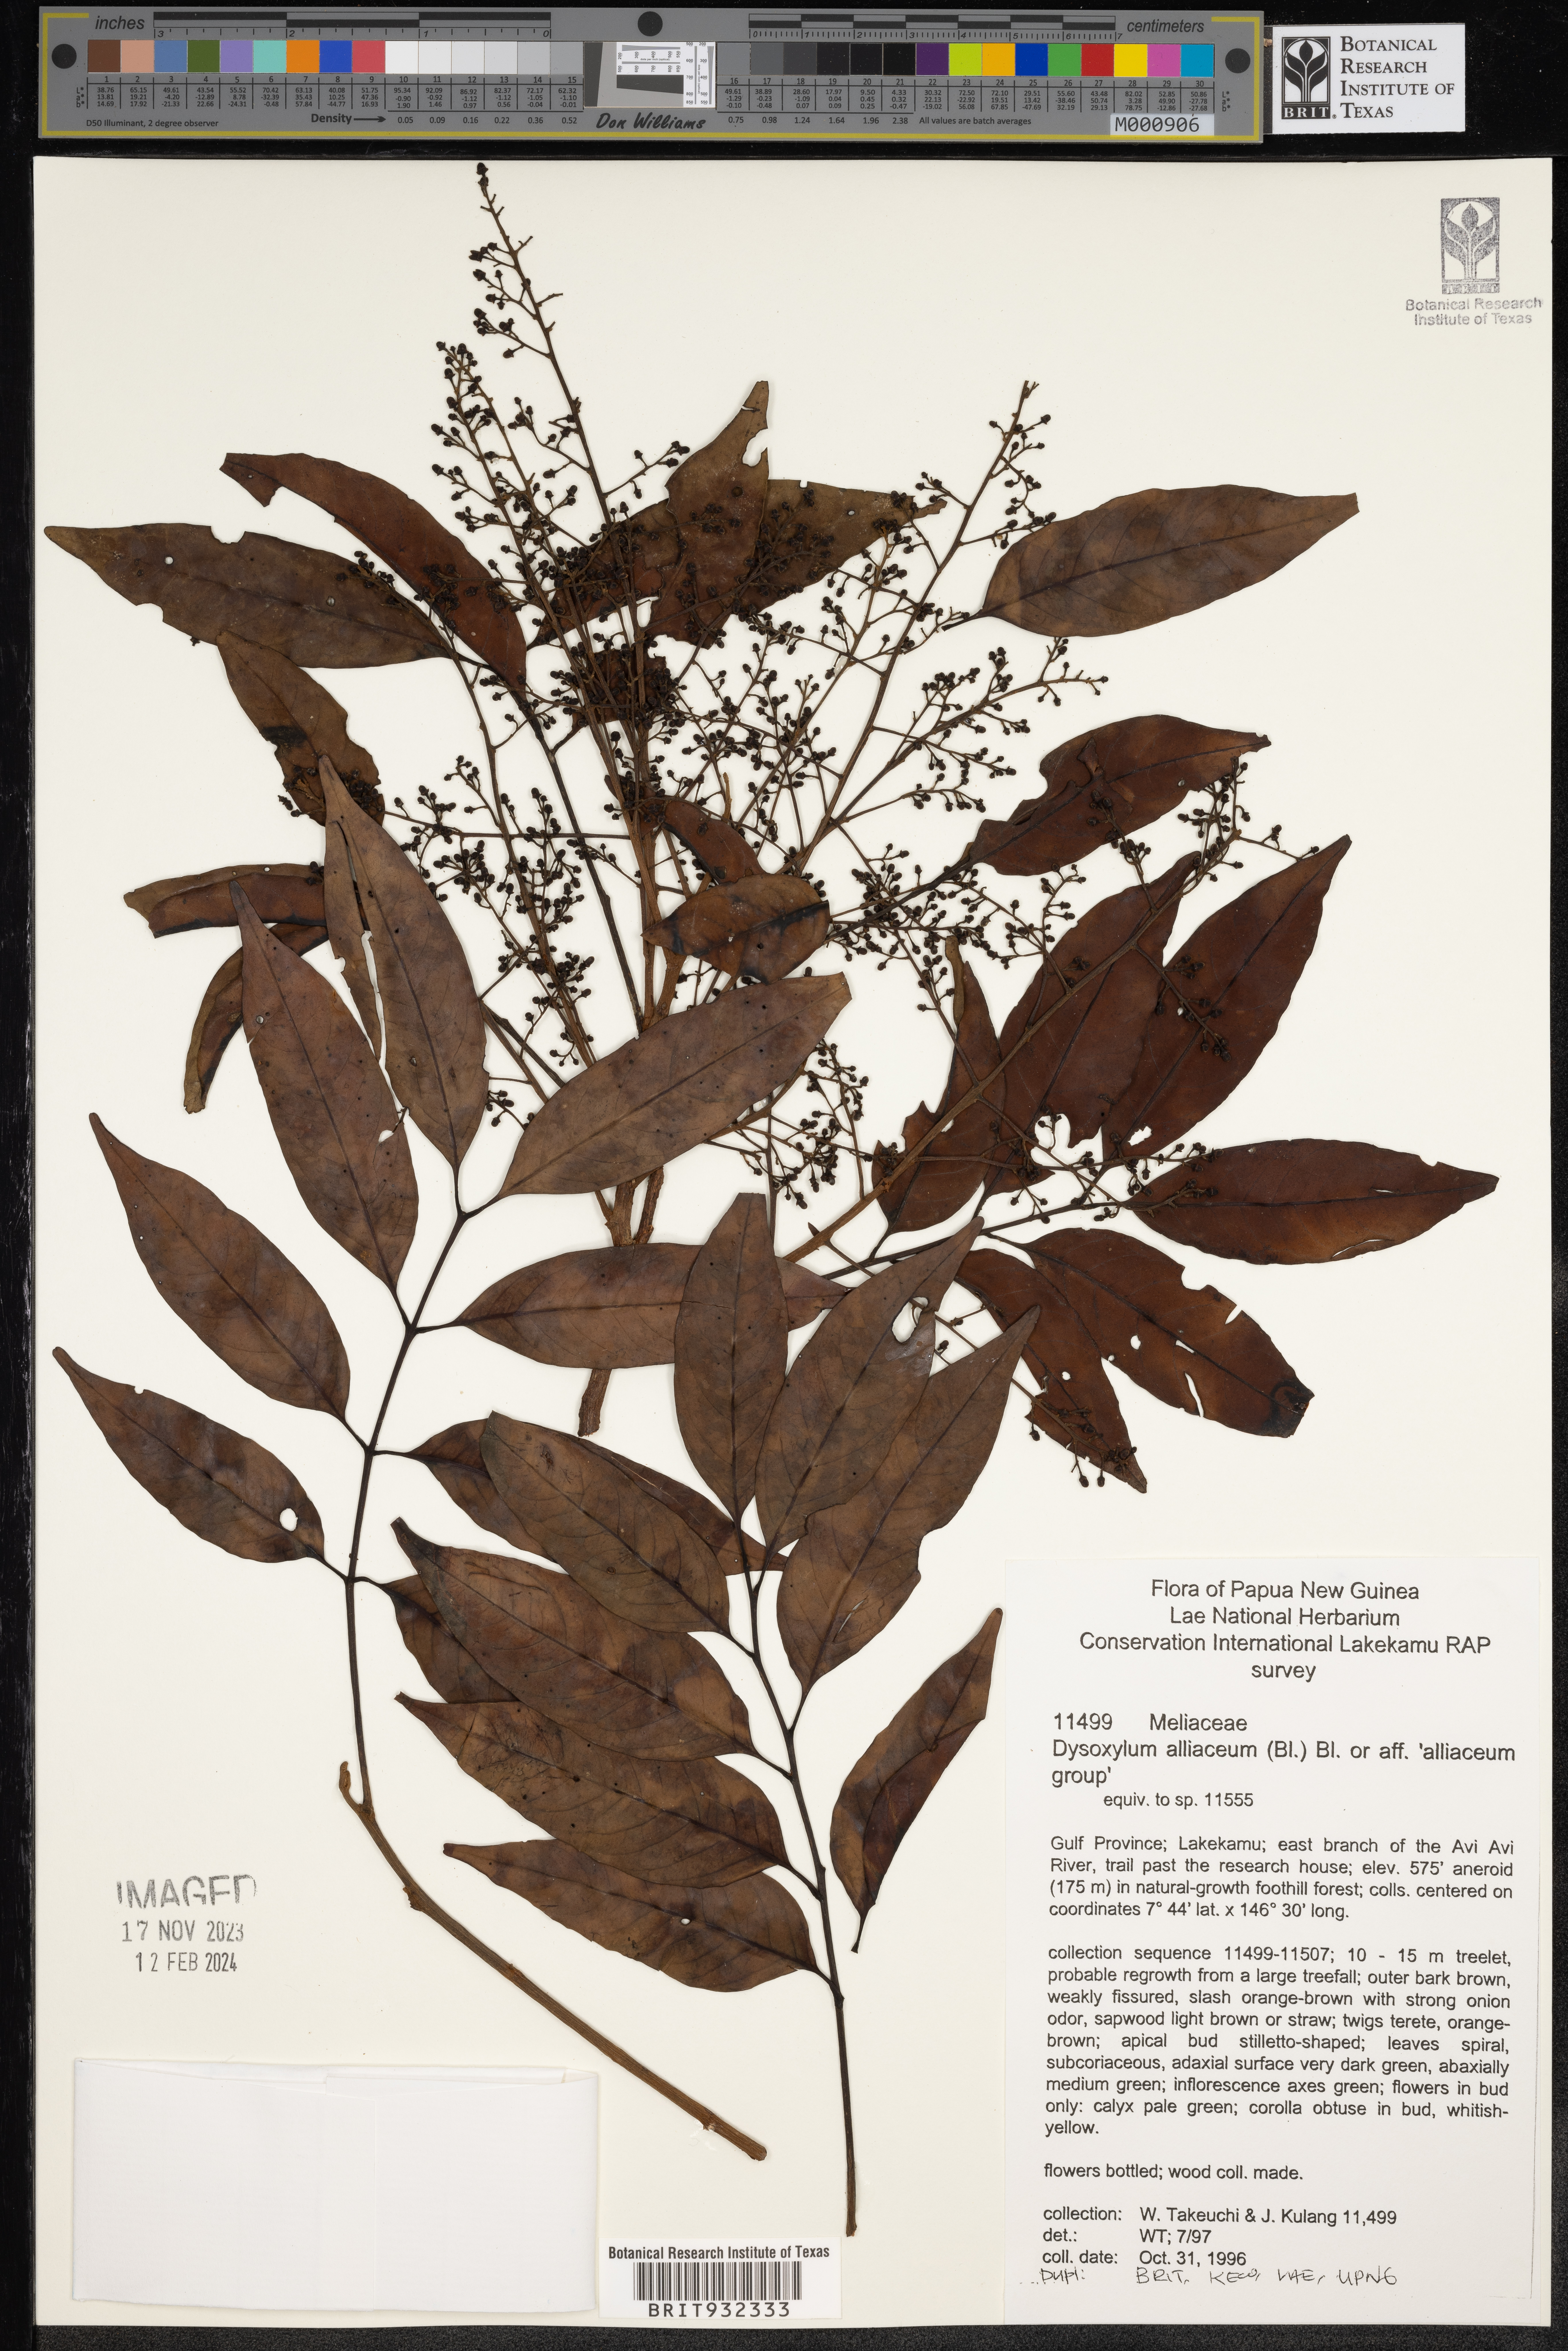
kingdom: Plantae
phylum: Tracheophyta
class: Magnoliopsida
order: Sapindales
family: Meliaceae
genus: Dysoxylum
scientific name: Dysoxylum
